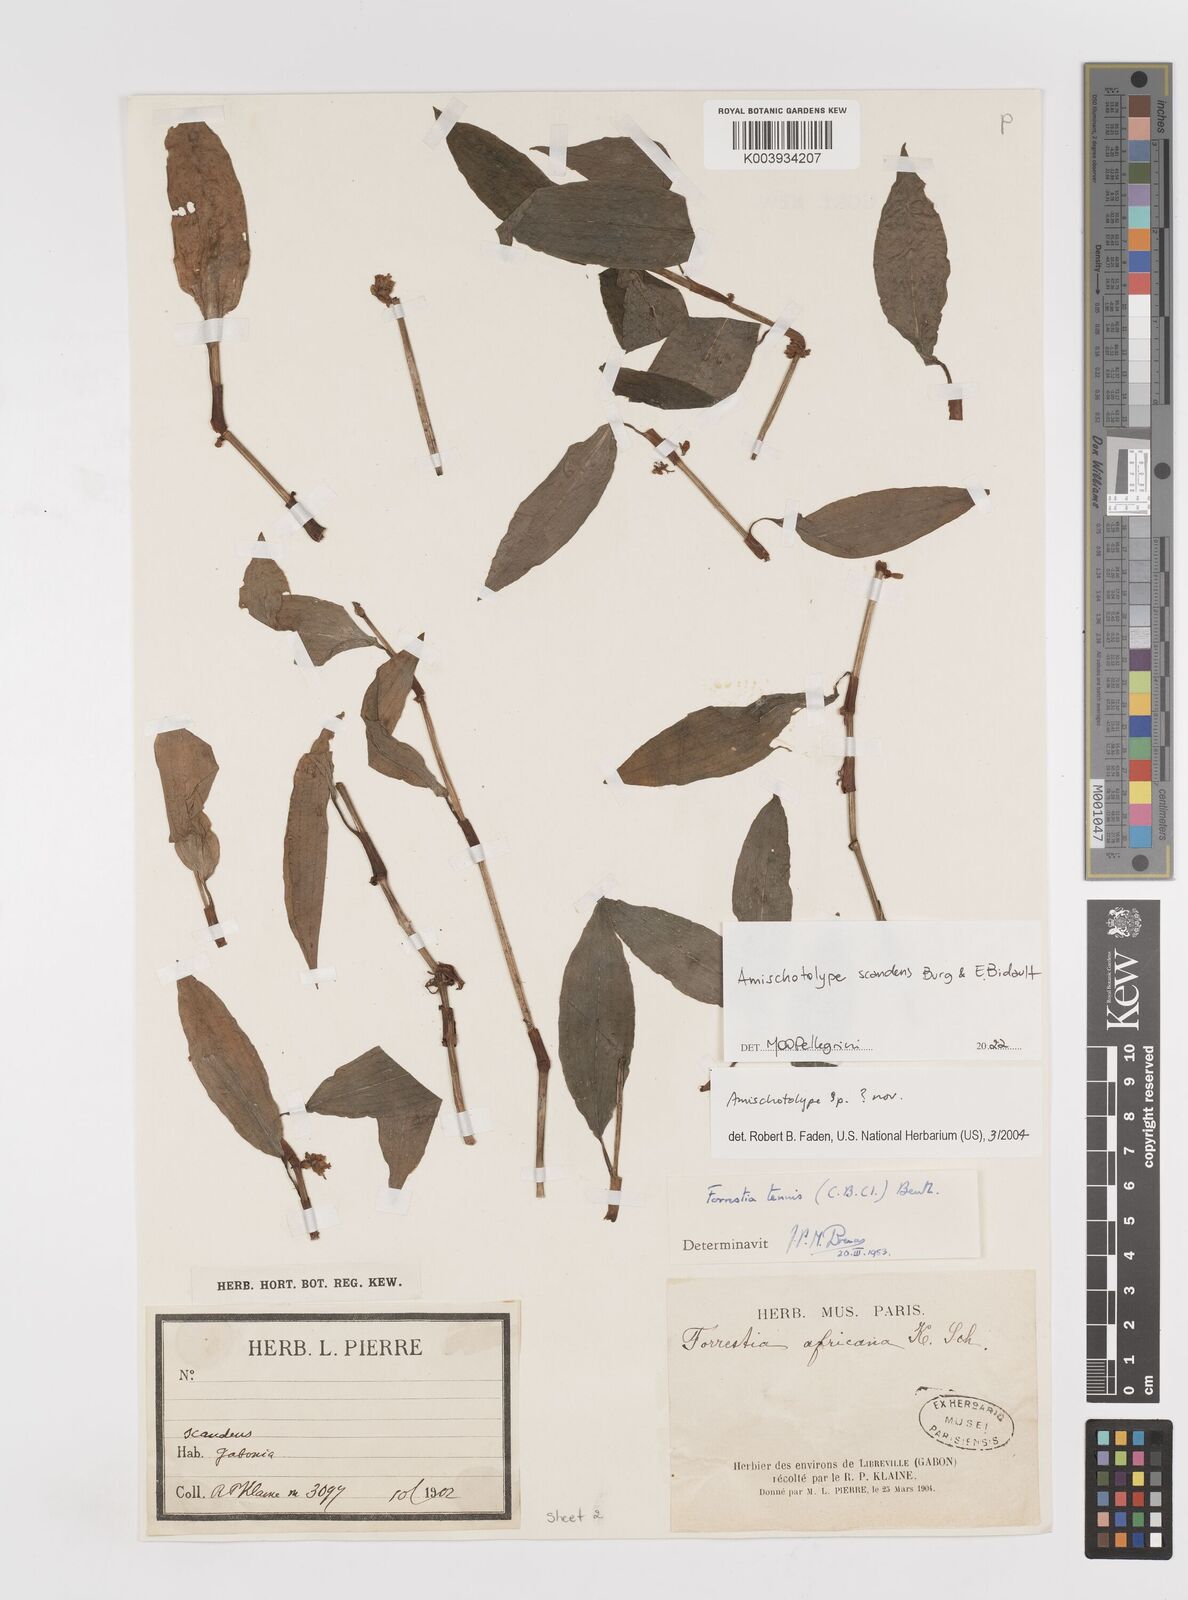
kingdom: Plantae
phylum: Tracheophyta
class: Liliopsida
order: Commelinales
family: Commelinaceae
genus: Amischotolype
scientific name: Amischotolype
